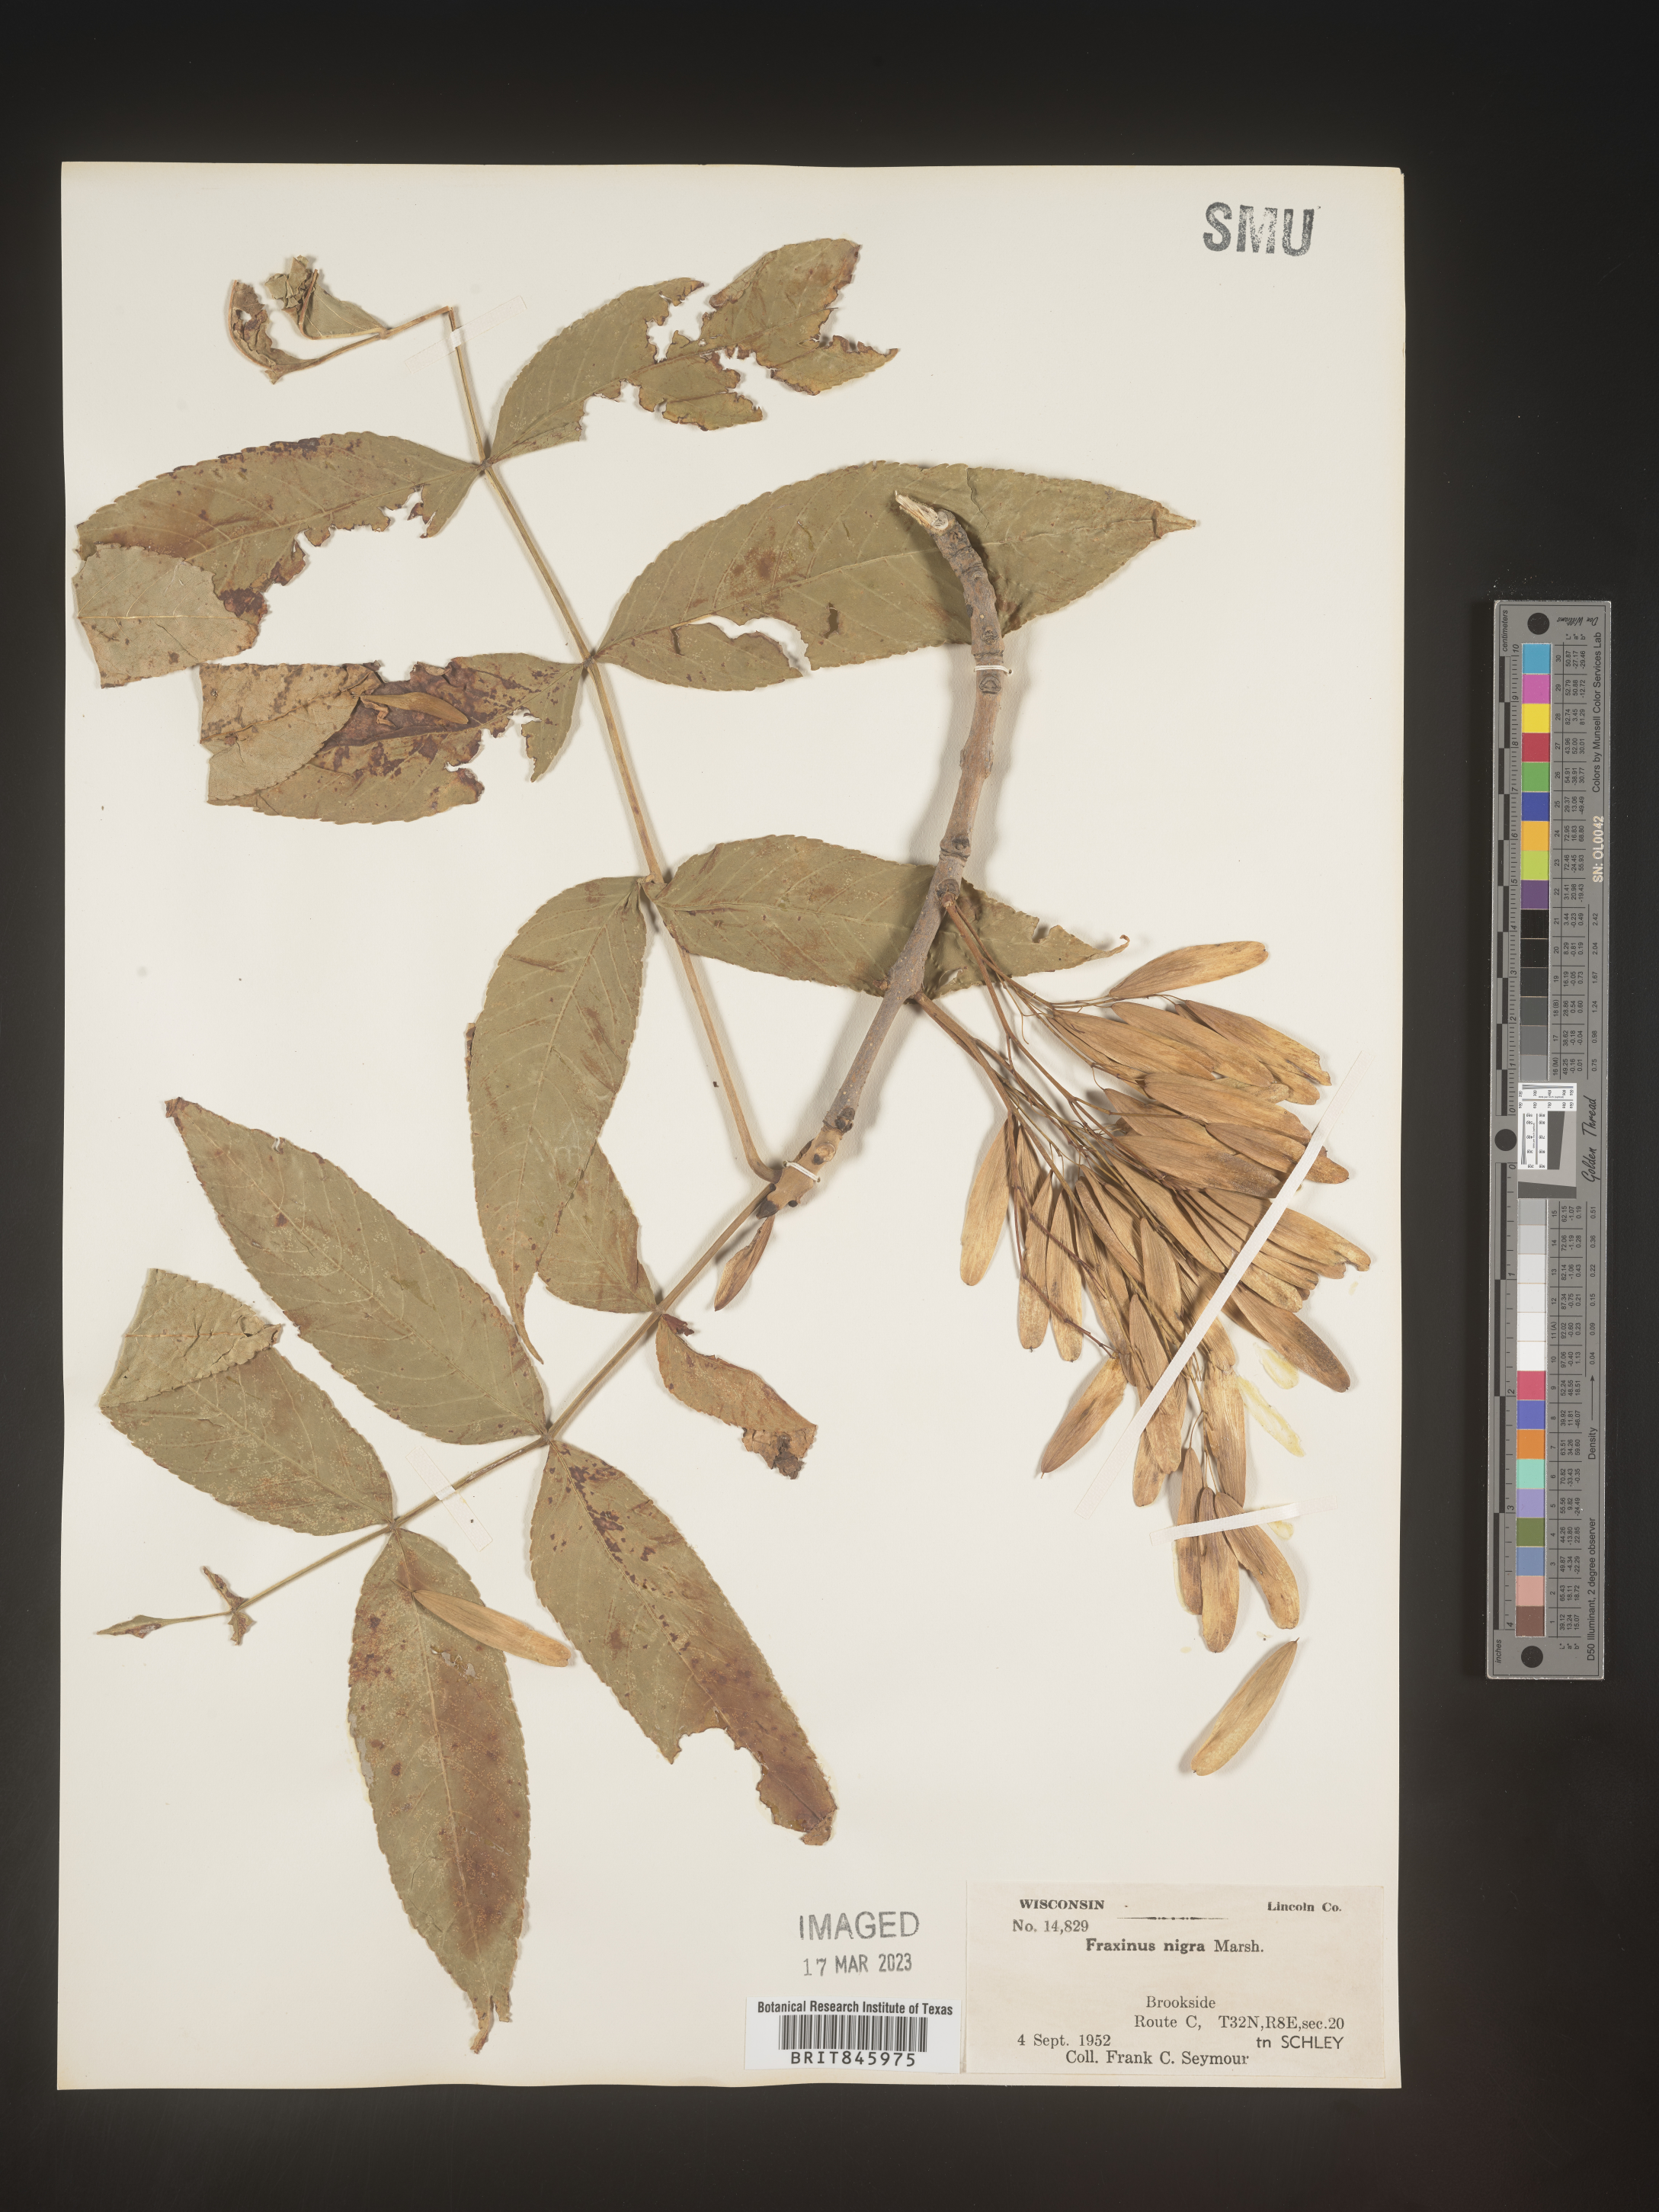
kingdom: Plantae
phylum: Tracheophyta
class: Magnoliopsida
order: Lamiales
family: Oleaceae
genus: Fraxinus
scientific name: Fraxinus nigra
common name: Black ash
